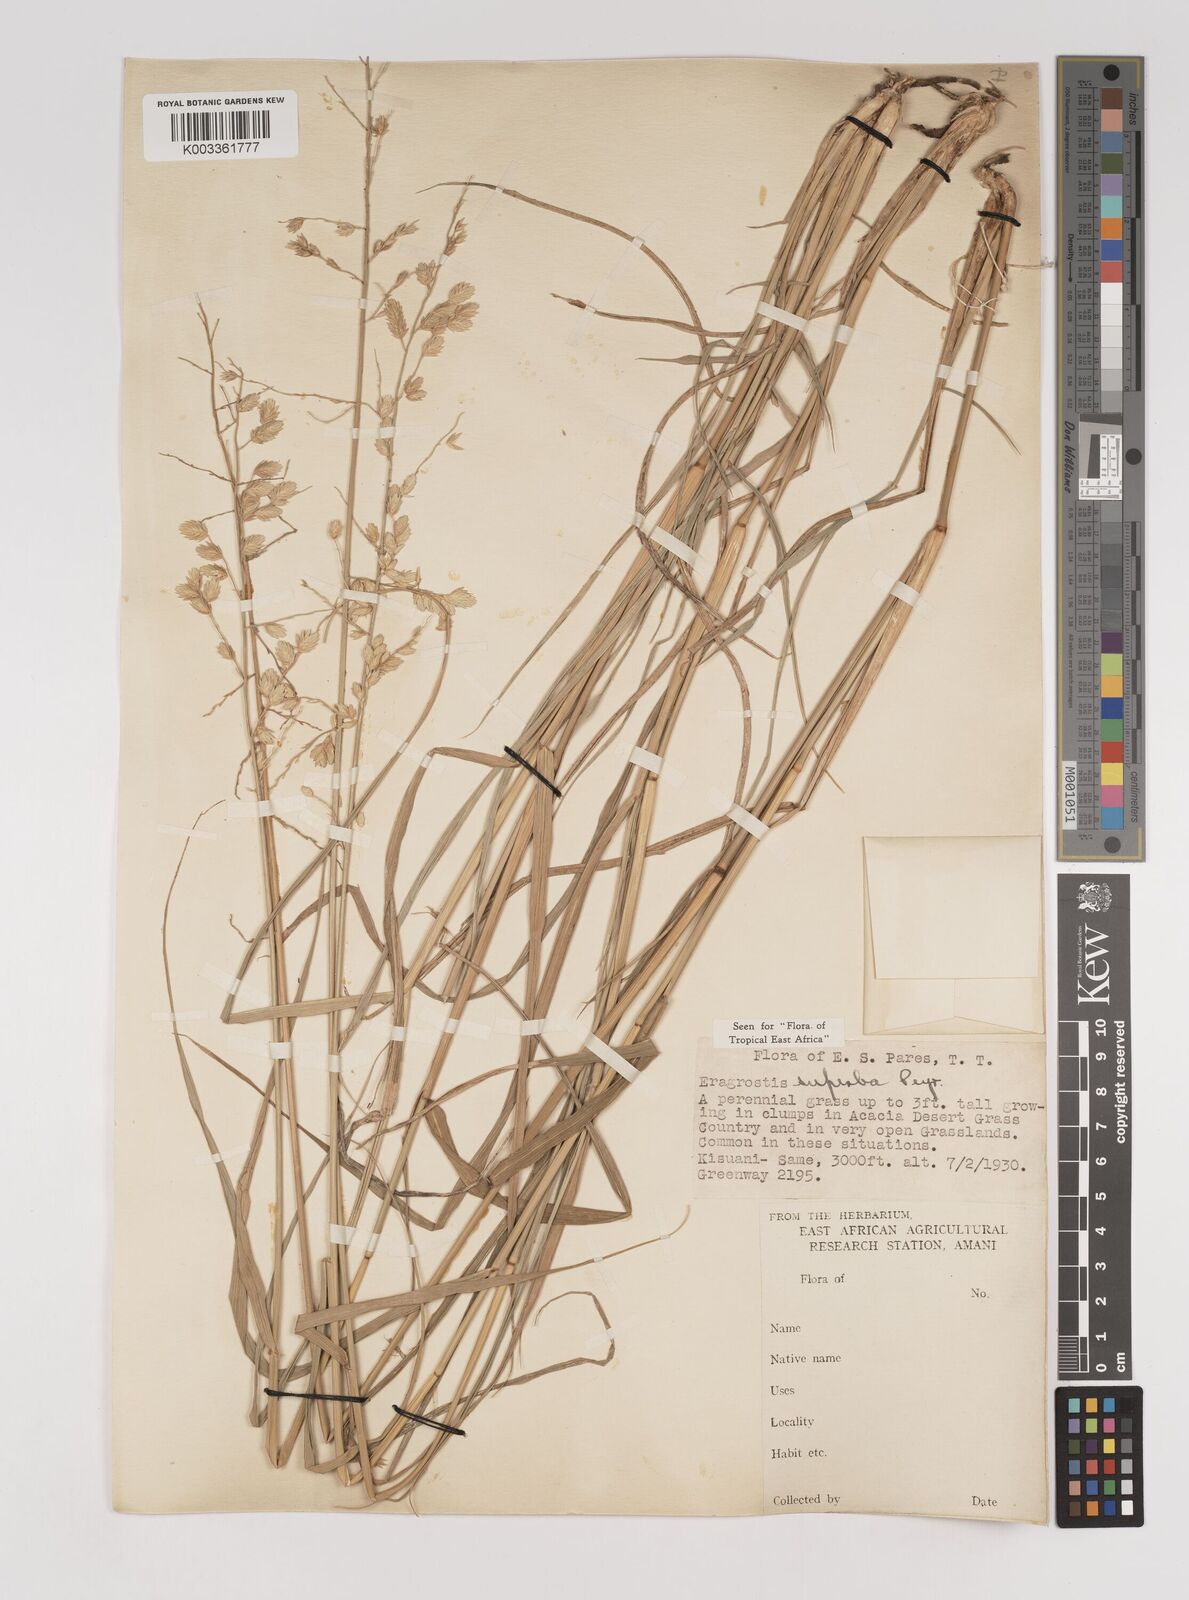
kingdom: Plantae
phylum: Tracheophyta
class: Liliopsida
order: Poales
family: Poaceae
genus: Eragrostis
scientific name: Eragrostis superba
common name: Wilman lovegrass
